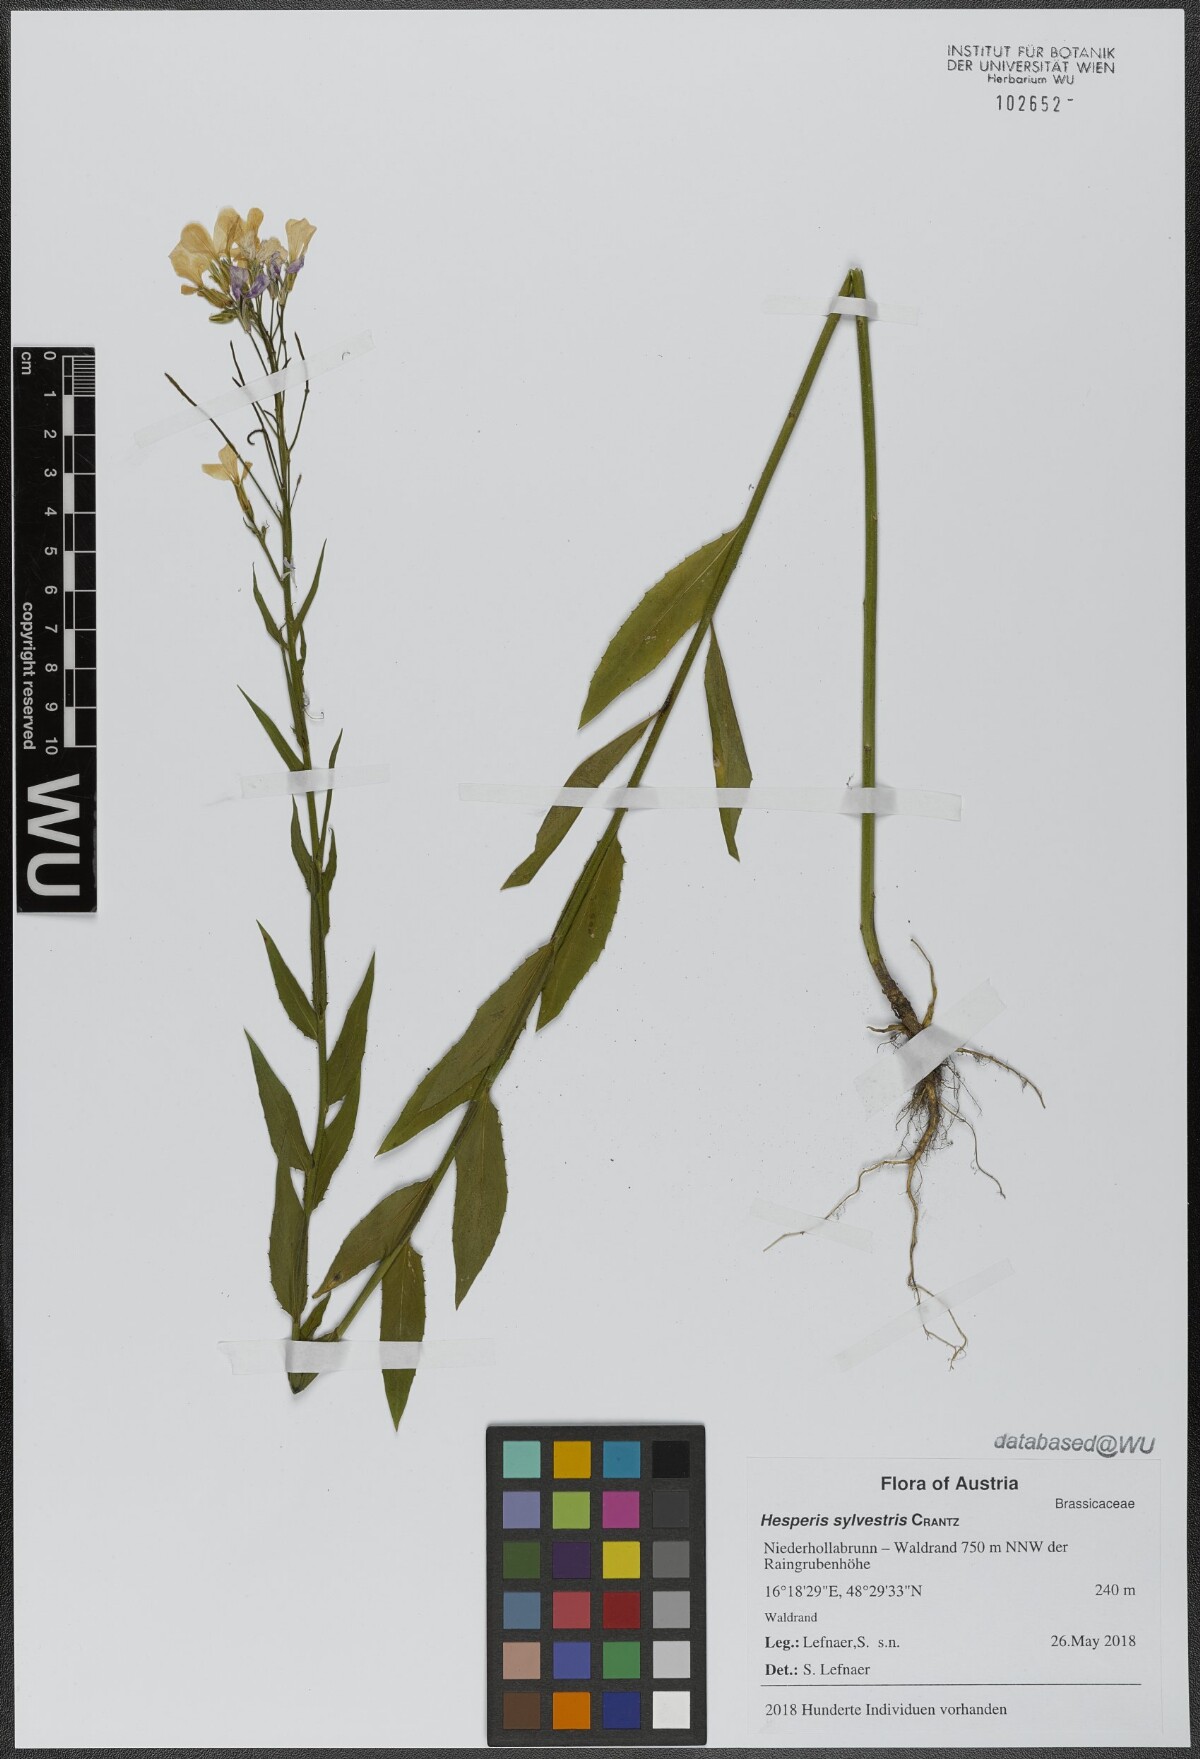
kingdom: Plantae
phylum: Tracheophyta
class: Magnoliopsida
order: Brassicales
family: Brassicaceae
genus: Hesperis
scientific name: Hesperis sylvestris
